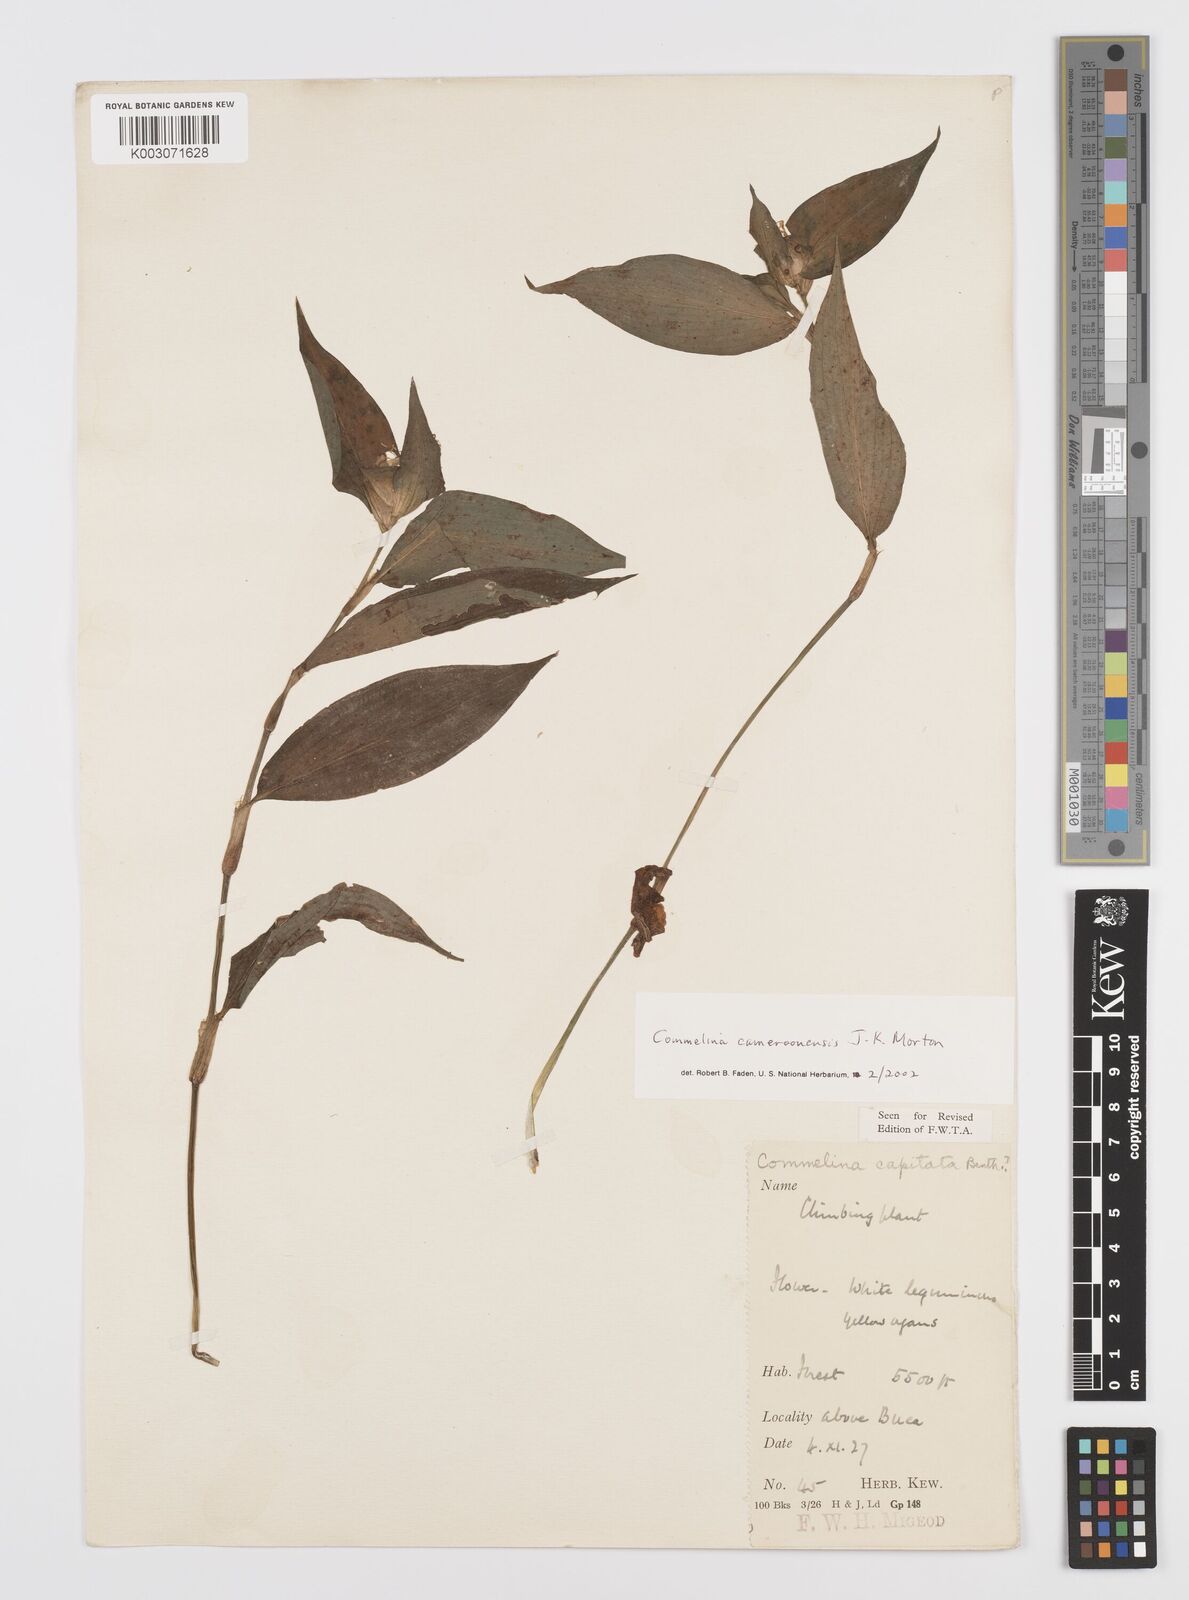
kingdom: Plantae
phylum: Tracheophyta
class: Liliopsida
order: Commelinales
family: Commelinaceae
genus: Commelina
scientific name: Commelina cameroonensis
